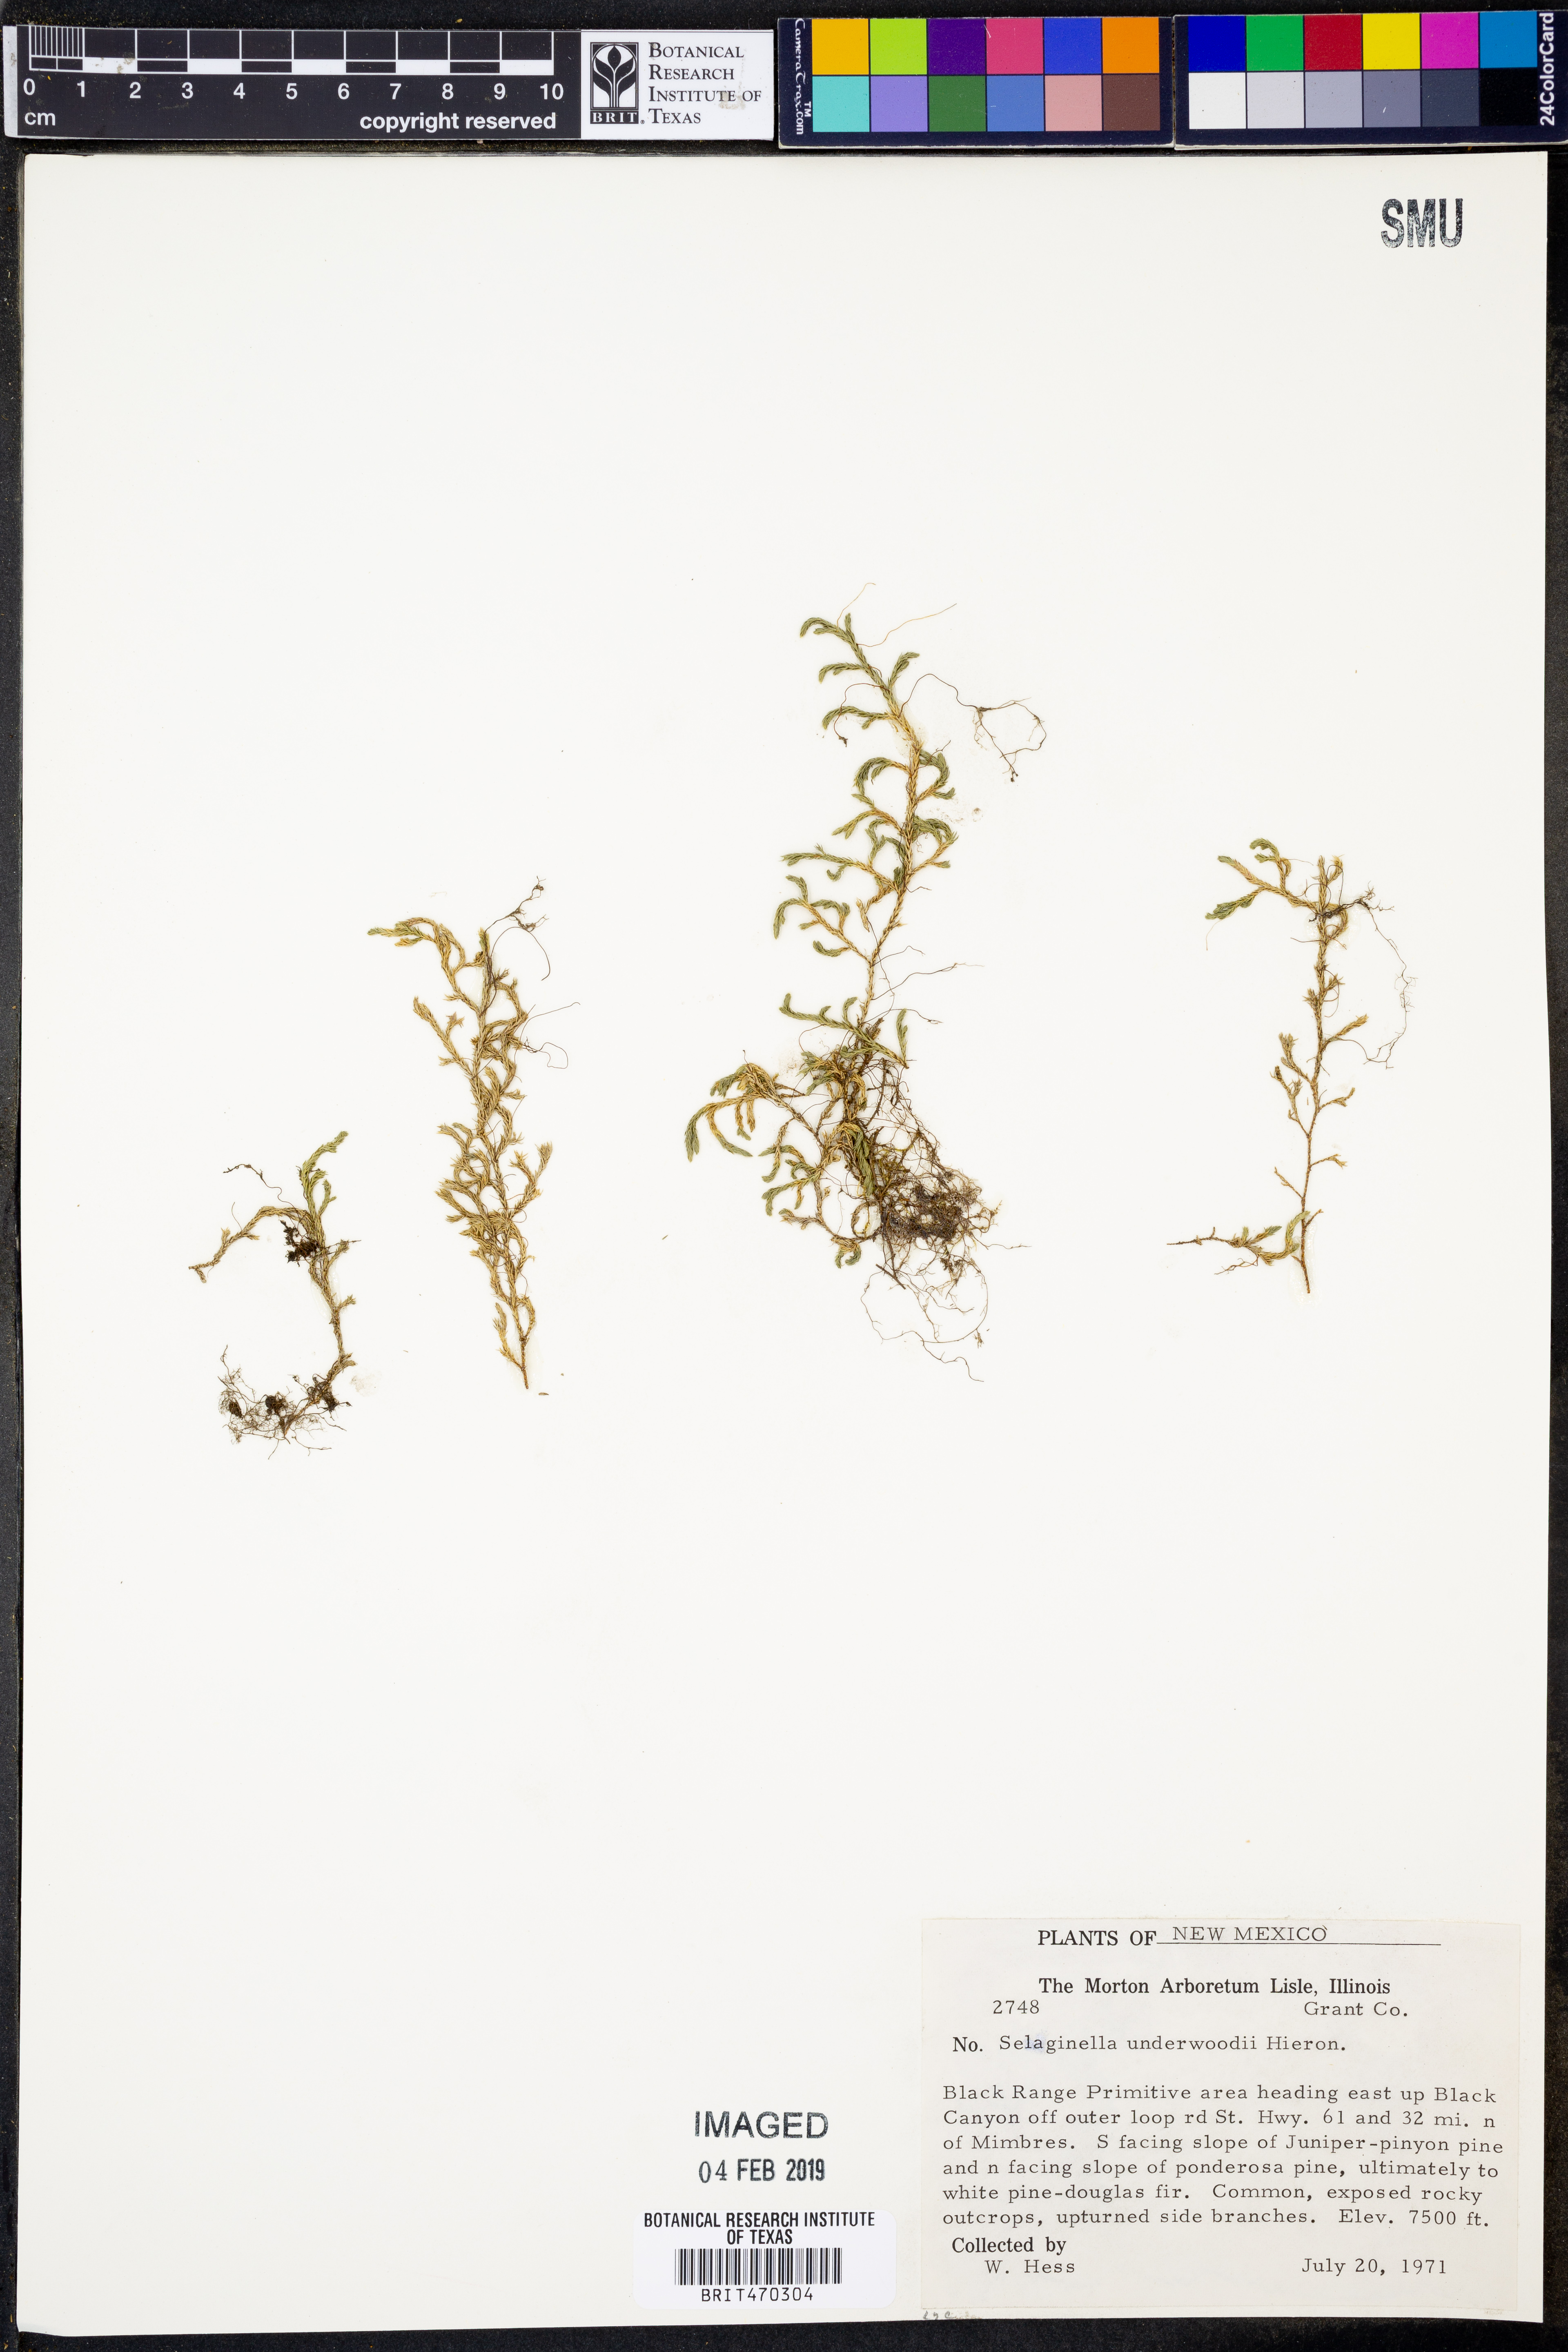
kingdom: Plantae
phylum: Tracheophyta
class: Lycopodiopsida
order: Selaginellales
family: Selaginellaceae
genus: Selaginella
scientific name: Selaginella underwoodii
